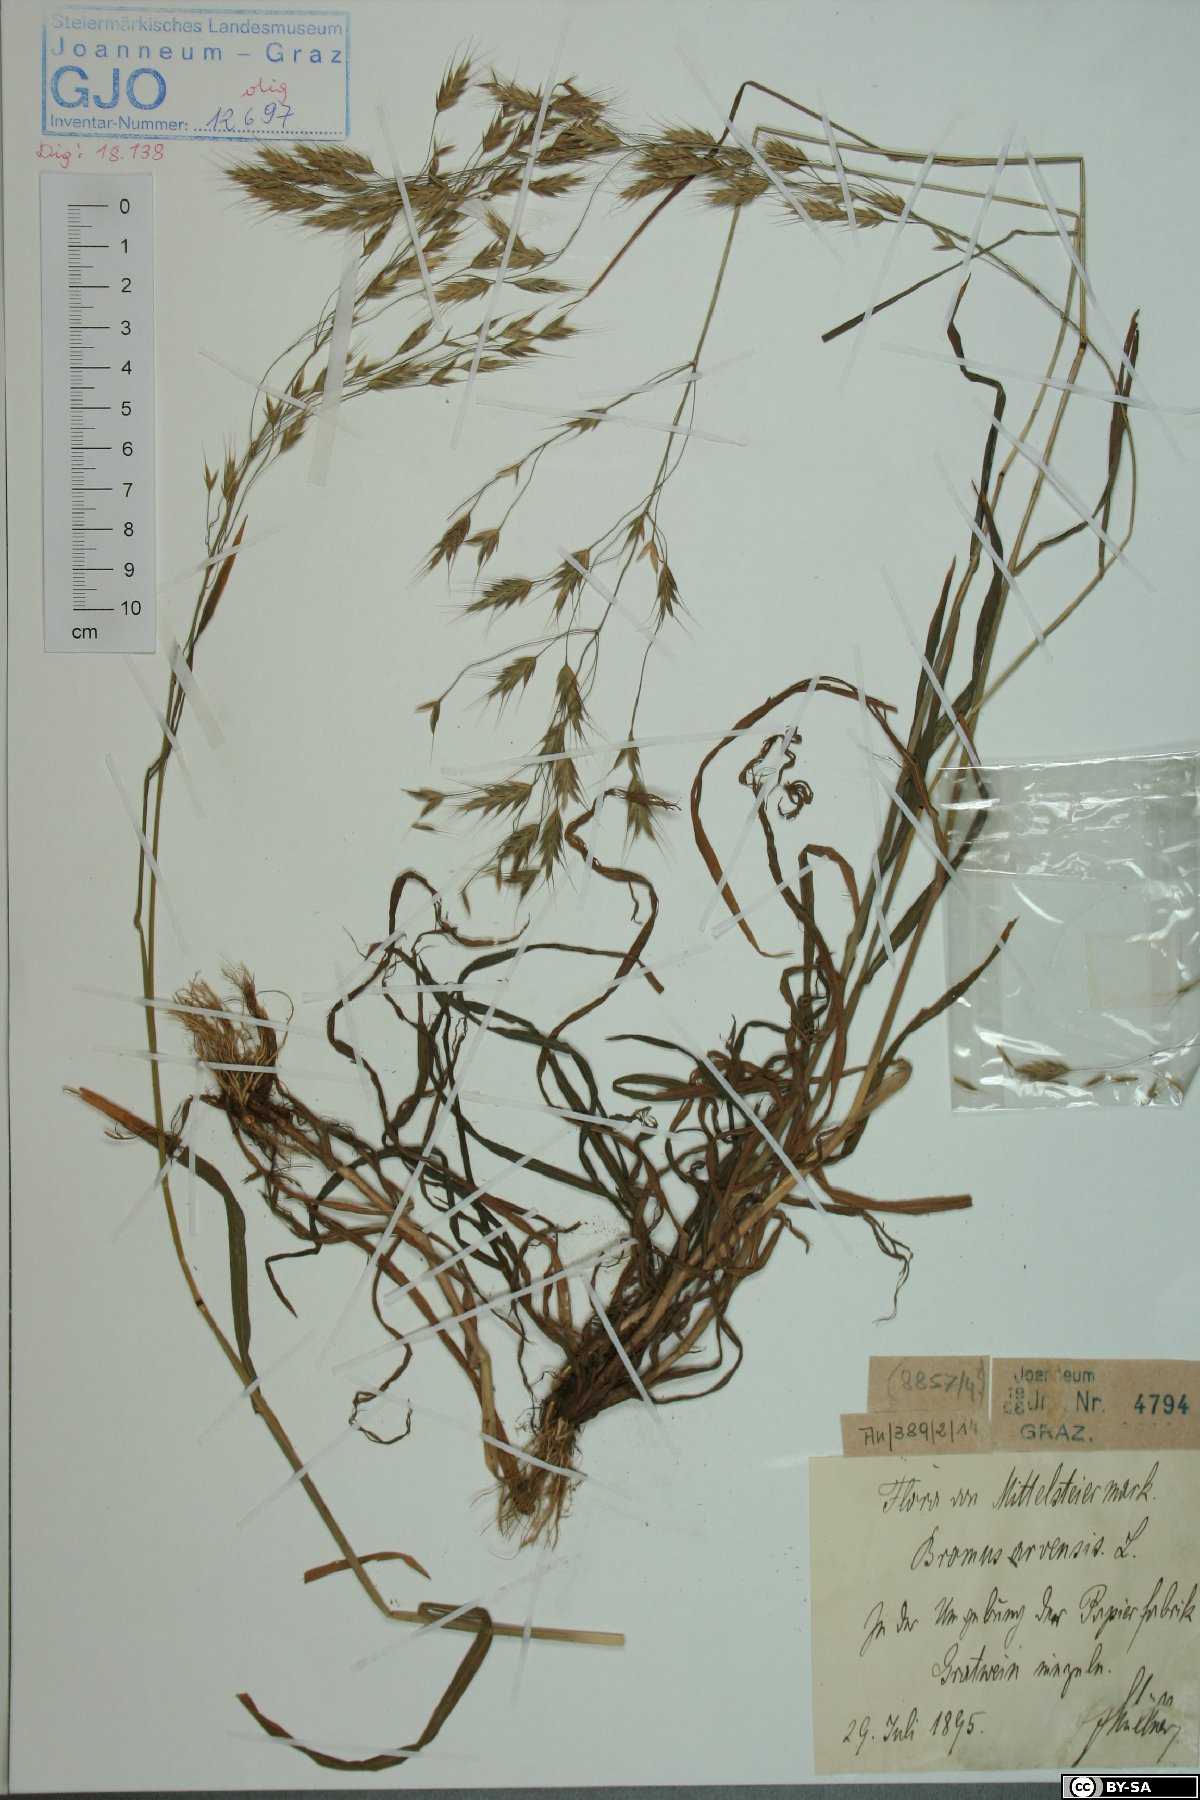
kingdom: Plantae
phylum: Tracheophyta
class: Liliopsida
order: Poales
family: Poaceae
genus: Bromus
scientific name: Bromus arvensis
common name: Field brome
